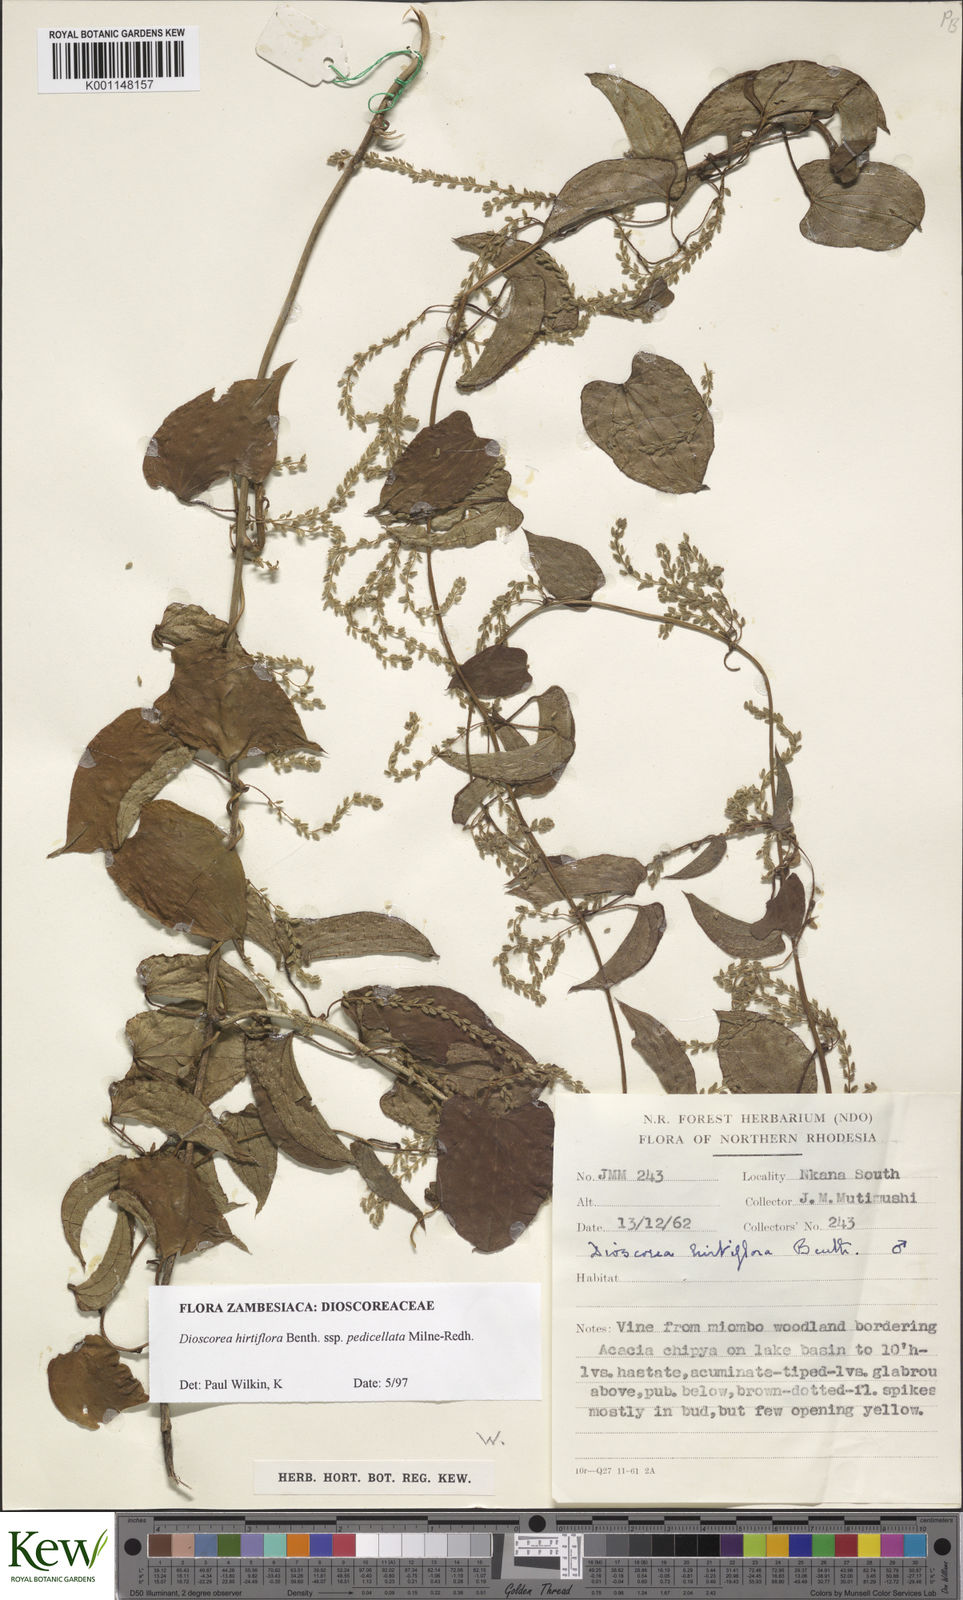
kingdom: Plantae
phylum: Tracheophyta
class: Liliopsida
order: Dioscoreales
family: Dioscoreaceae
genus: Dioscorea
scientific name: Dioscorea hirtiflora
